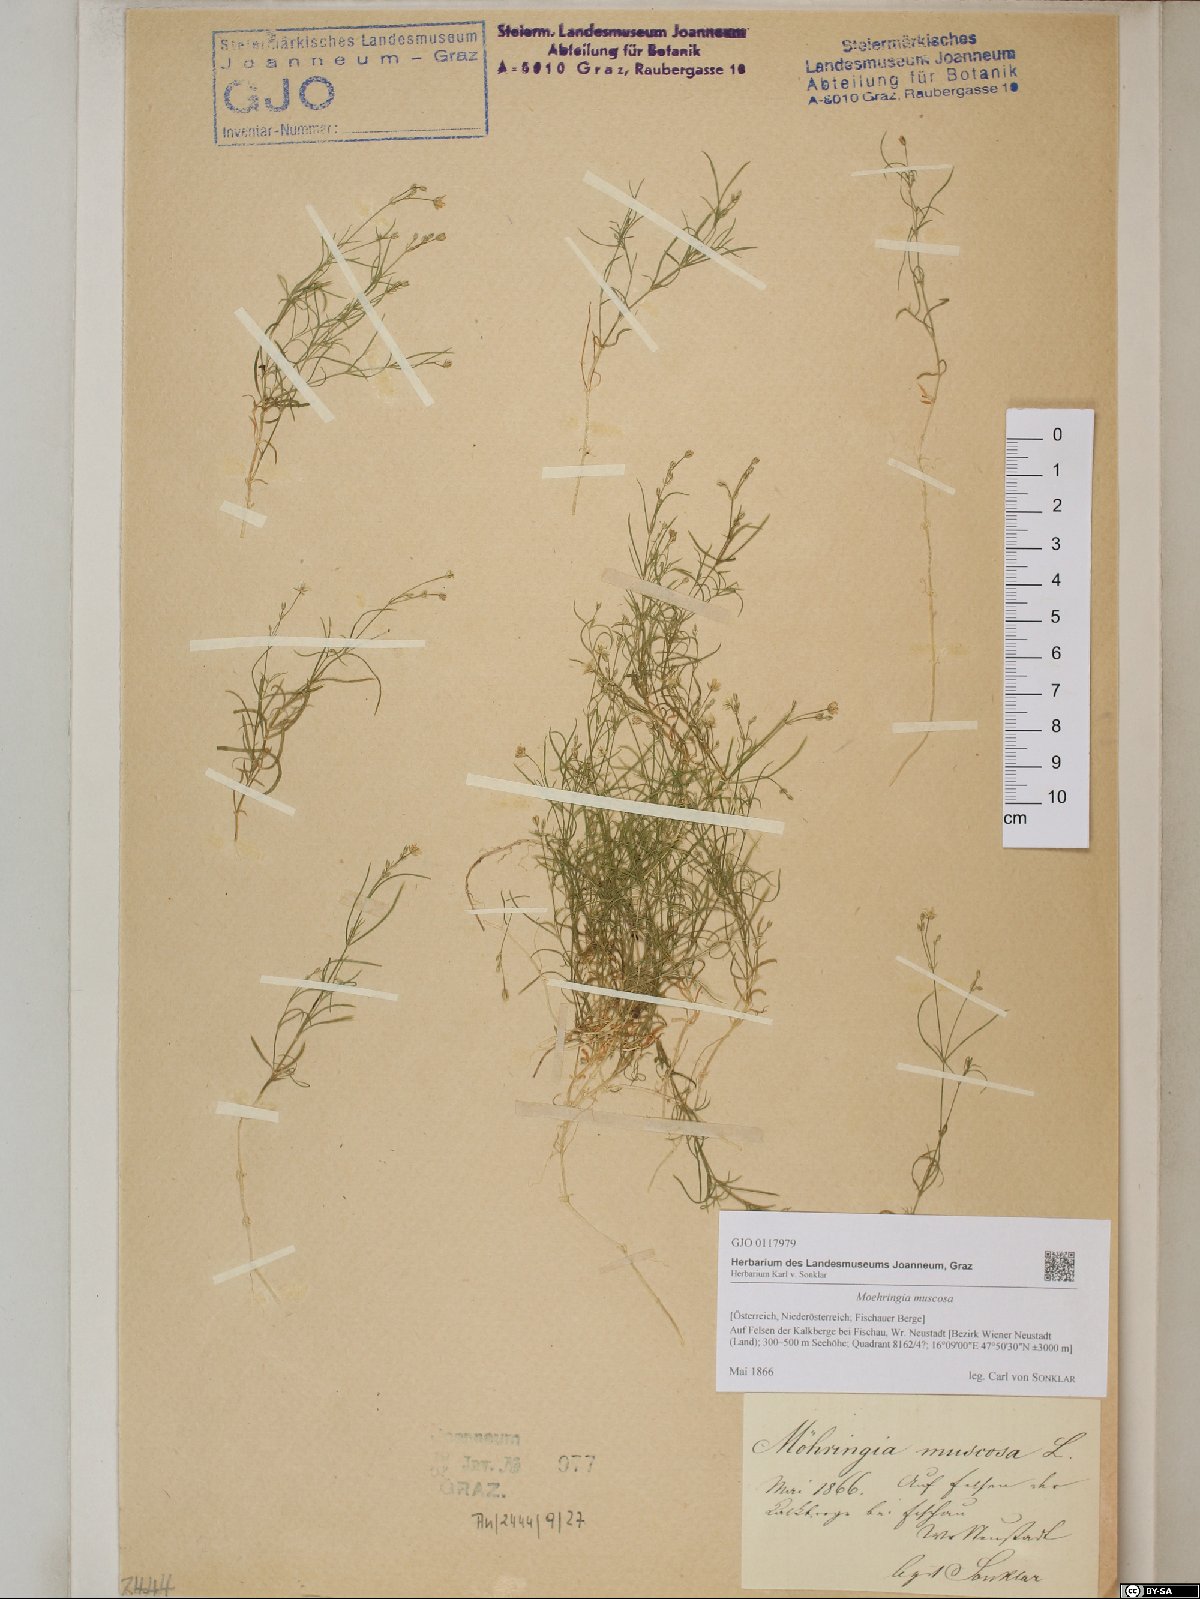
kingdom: Plantae
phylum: Tracheophyta
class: Magnoliopsida
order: Caryophyllales
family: Caryophyllaceae
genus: Moehringia
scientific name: Moehringia muscosa
